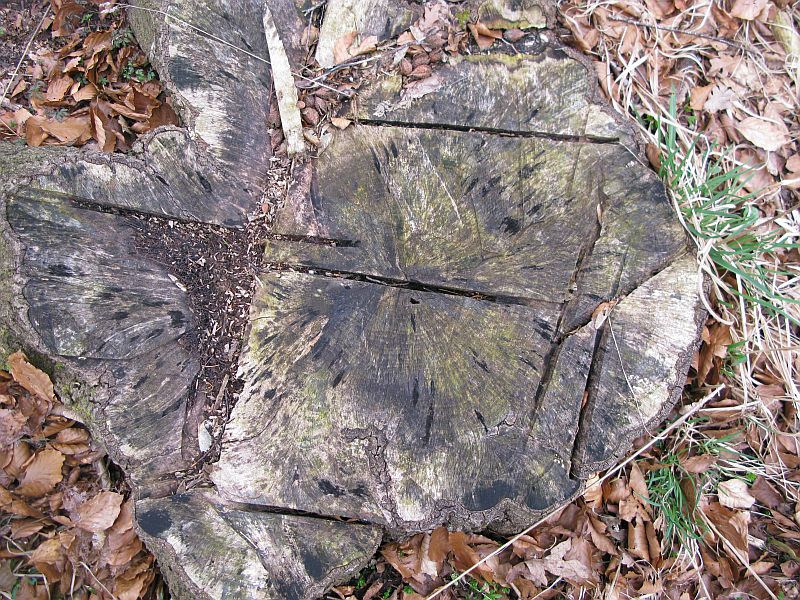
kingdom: Fungi
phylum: Ascomycota
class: Leotiomycetes
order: Helotiales
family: Helotiaceae
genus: Bispora
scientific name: Bispora pallescens
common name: måtte-snitskive
